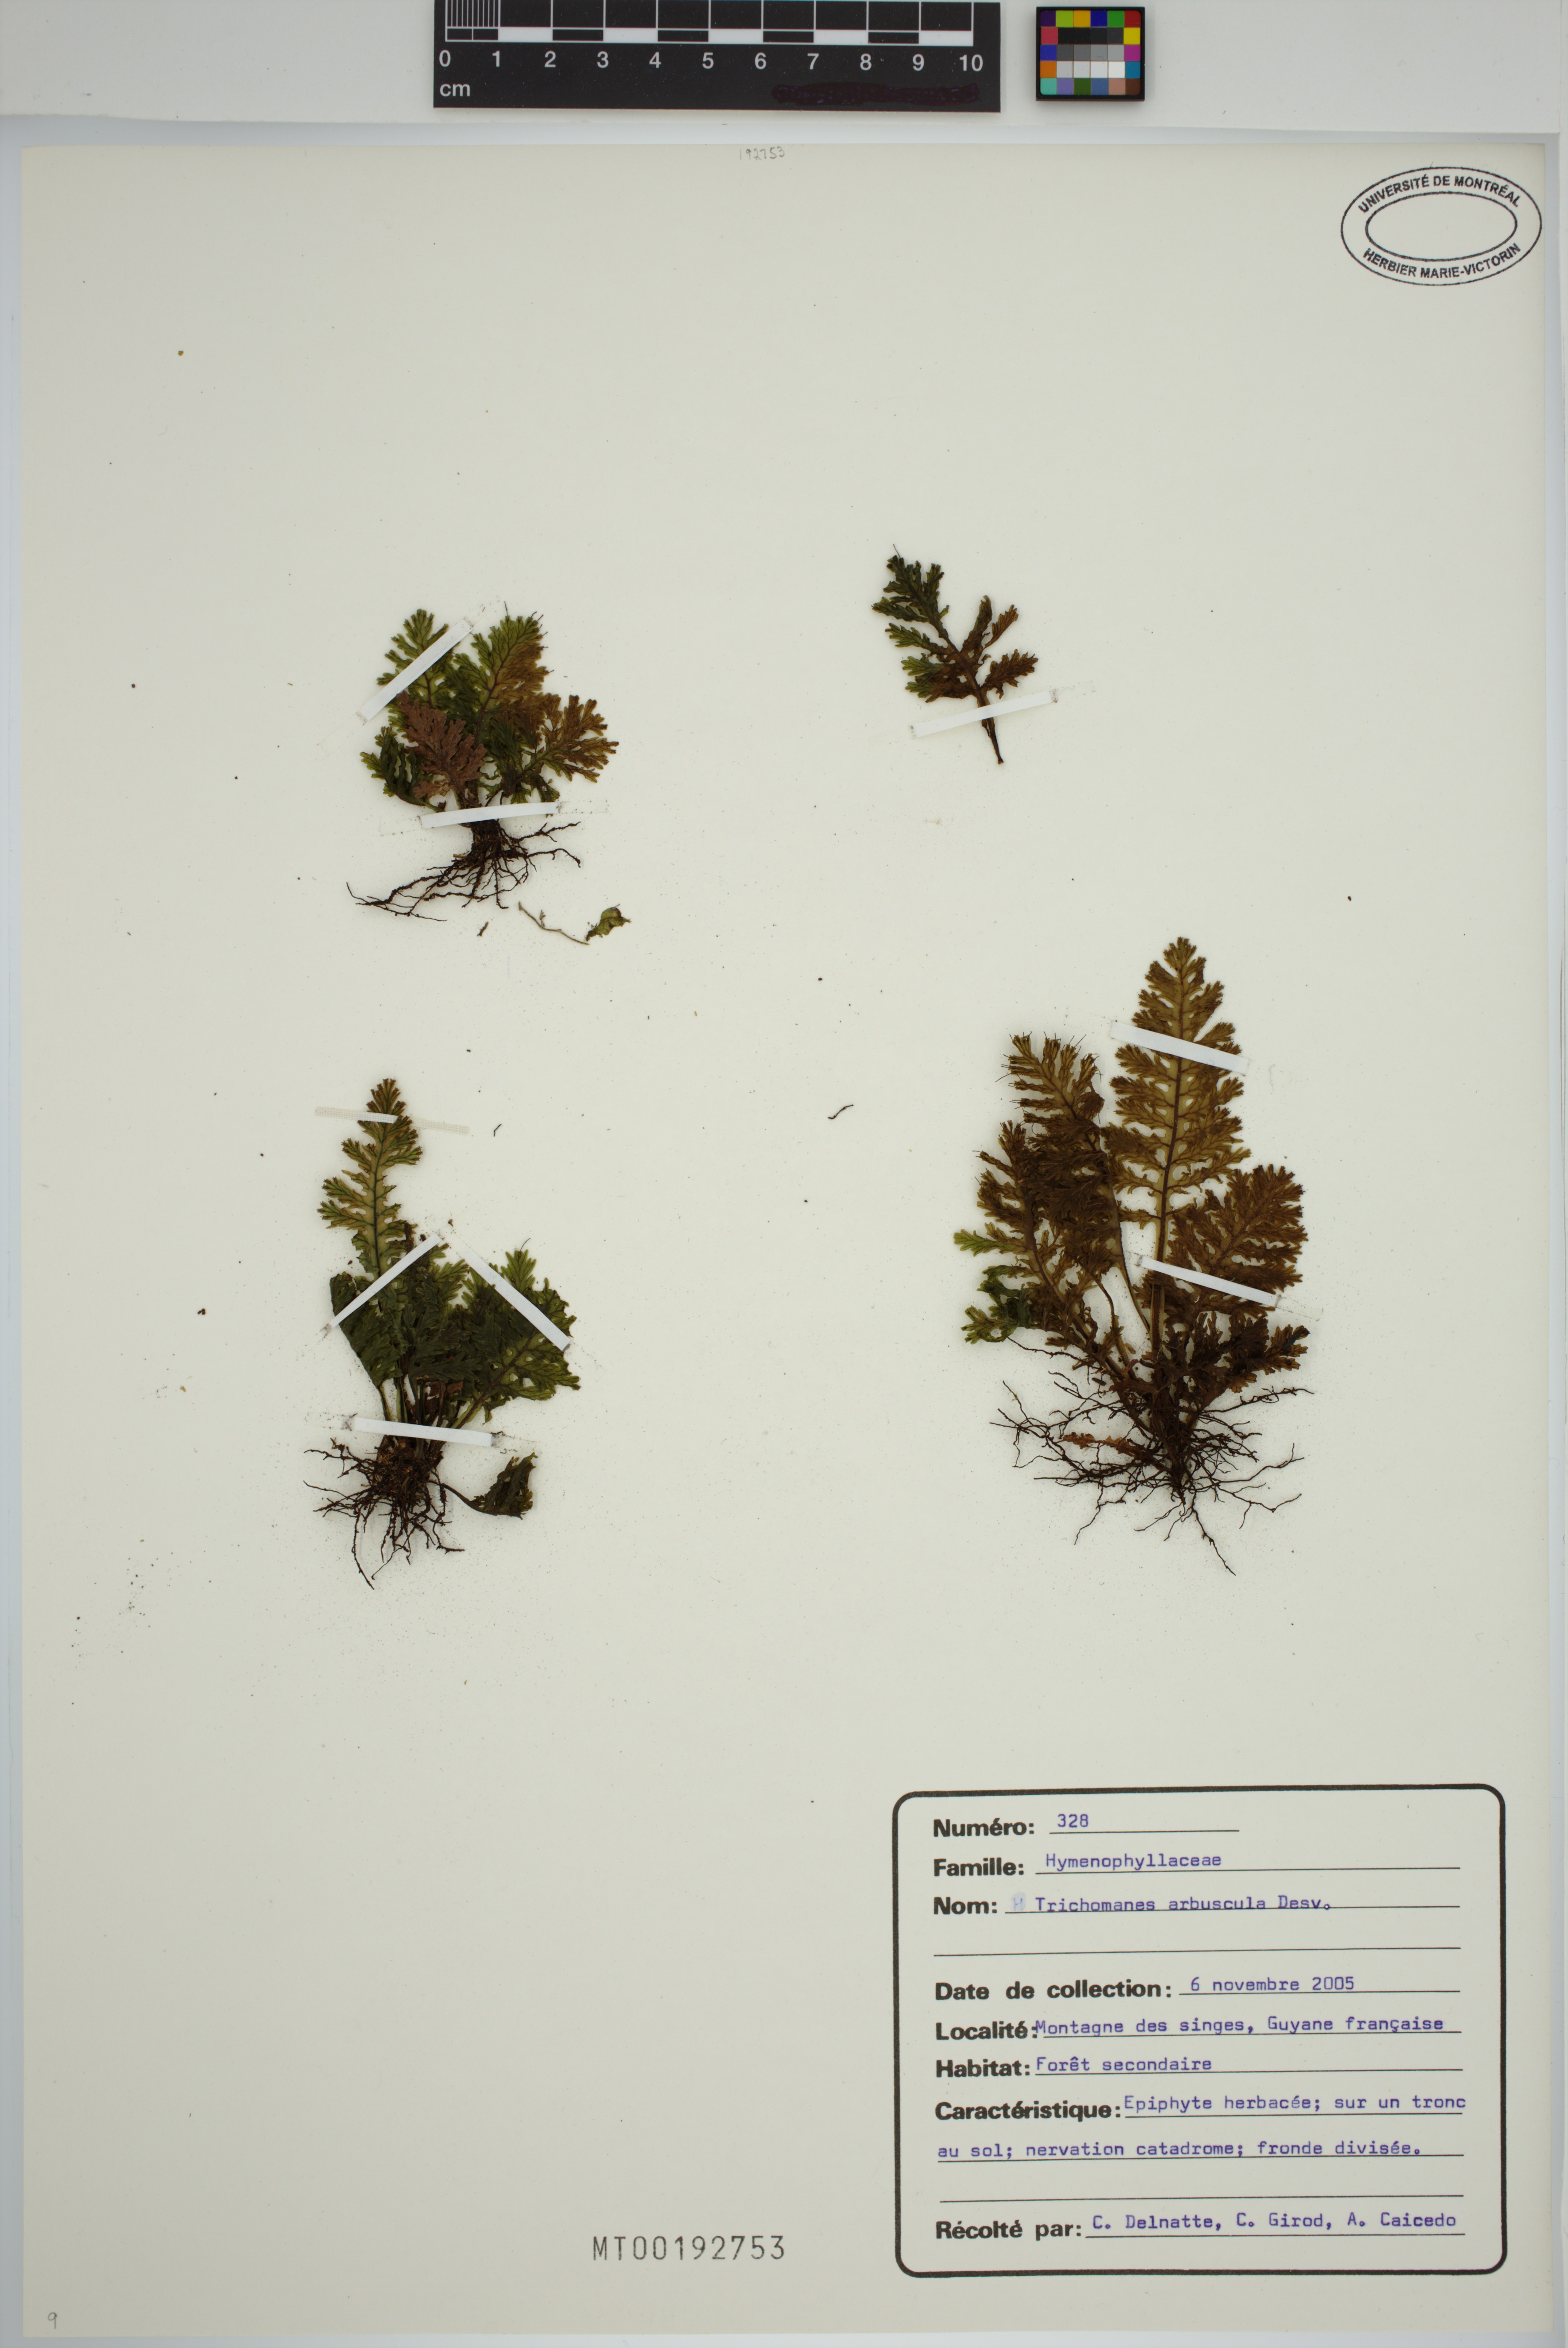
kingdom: Plantae
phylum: Tracheophyta
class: Polypodiopsida
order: Hymenophyllales
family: Hymenophyllaceae
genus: Trichomanes
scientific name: Trichomanes arbuscula
